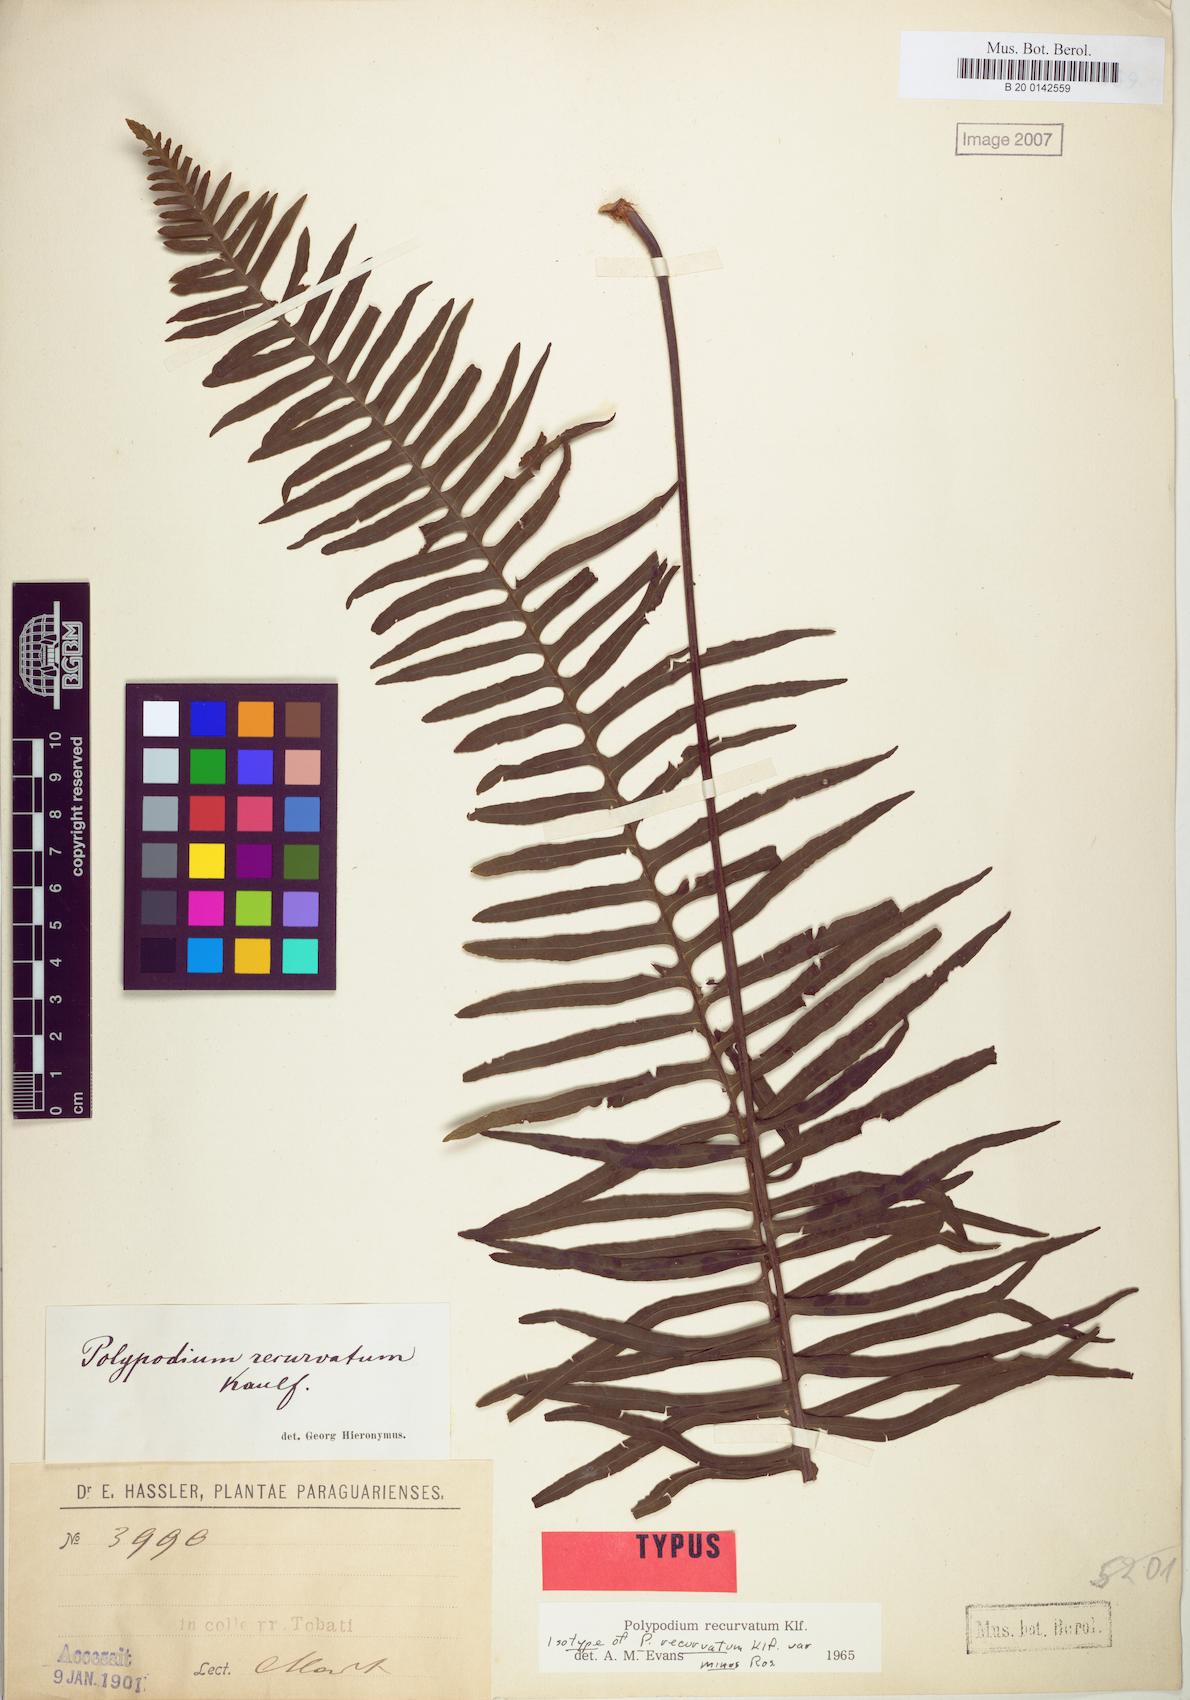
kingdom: Plantae
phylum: Tracheophyta
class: Polypodiopsida
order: Polypodiales
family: Polypodiaceae
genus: Pecluma
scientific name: Pecluma recurvata
